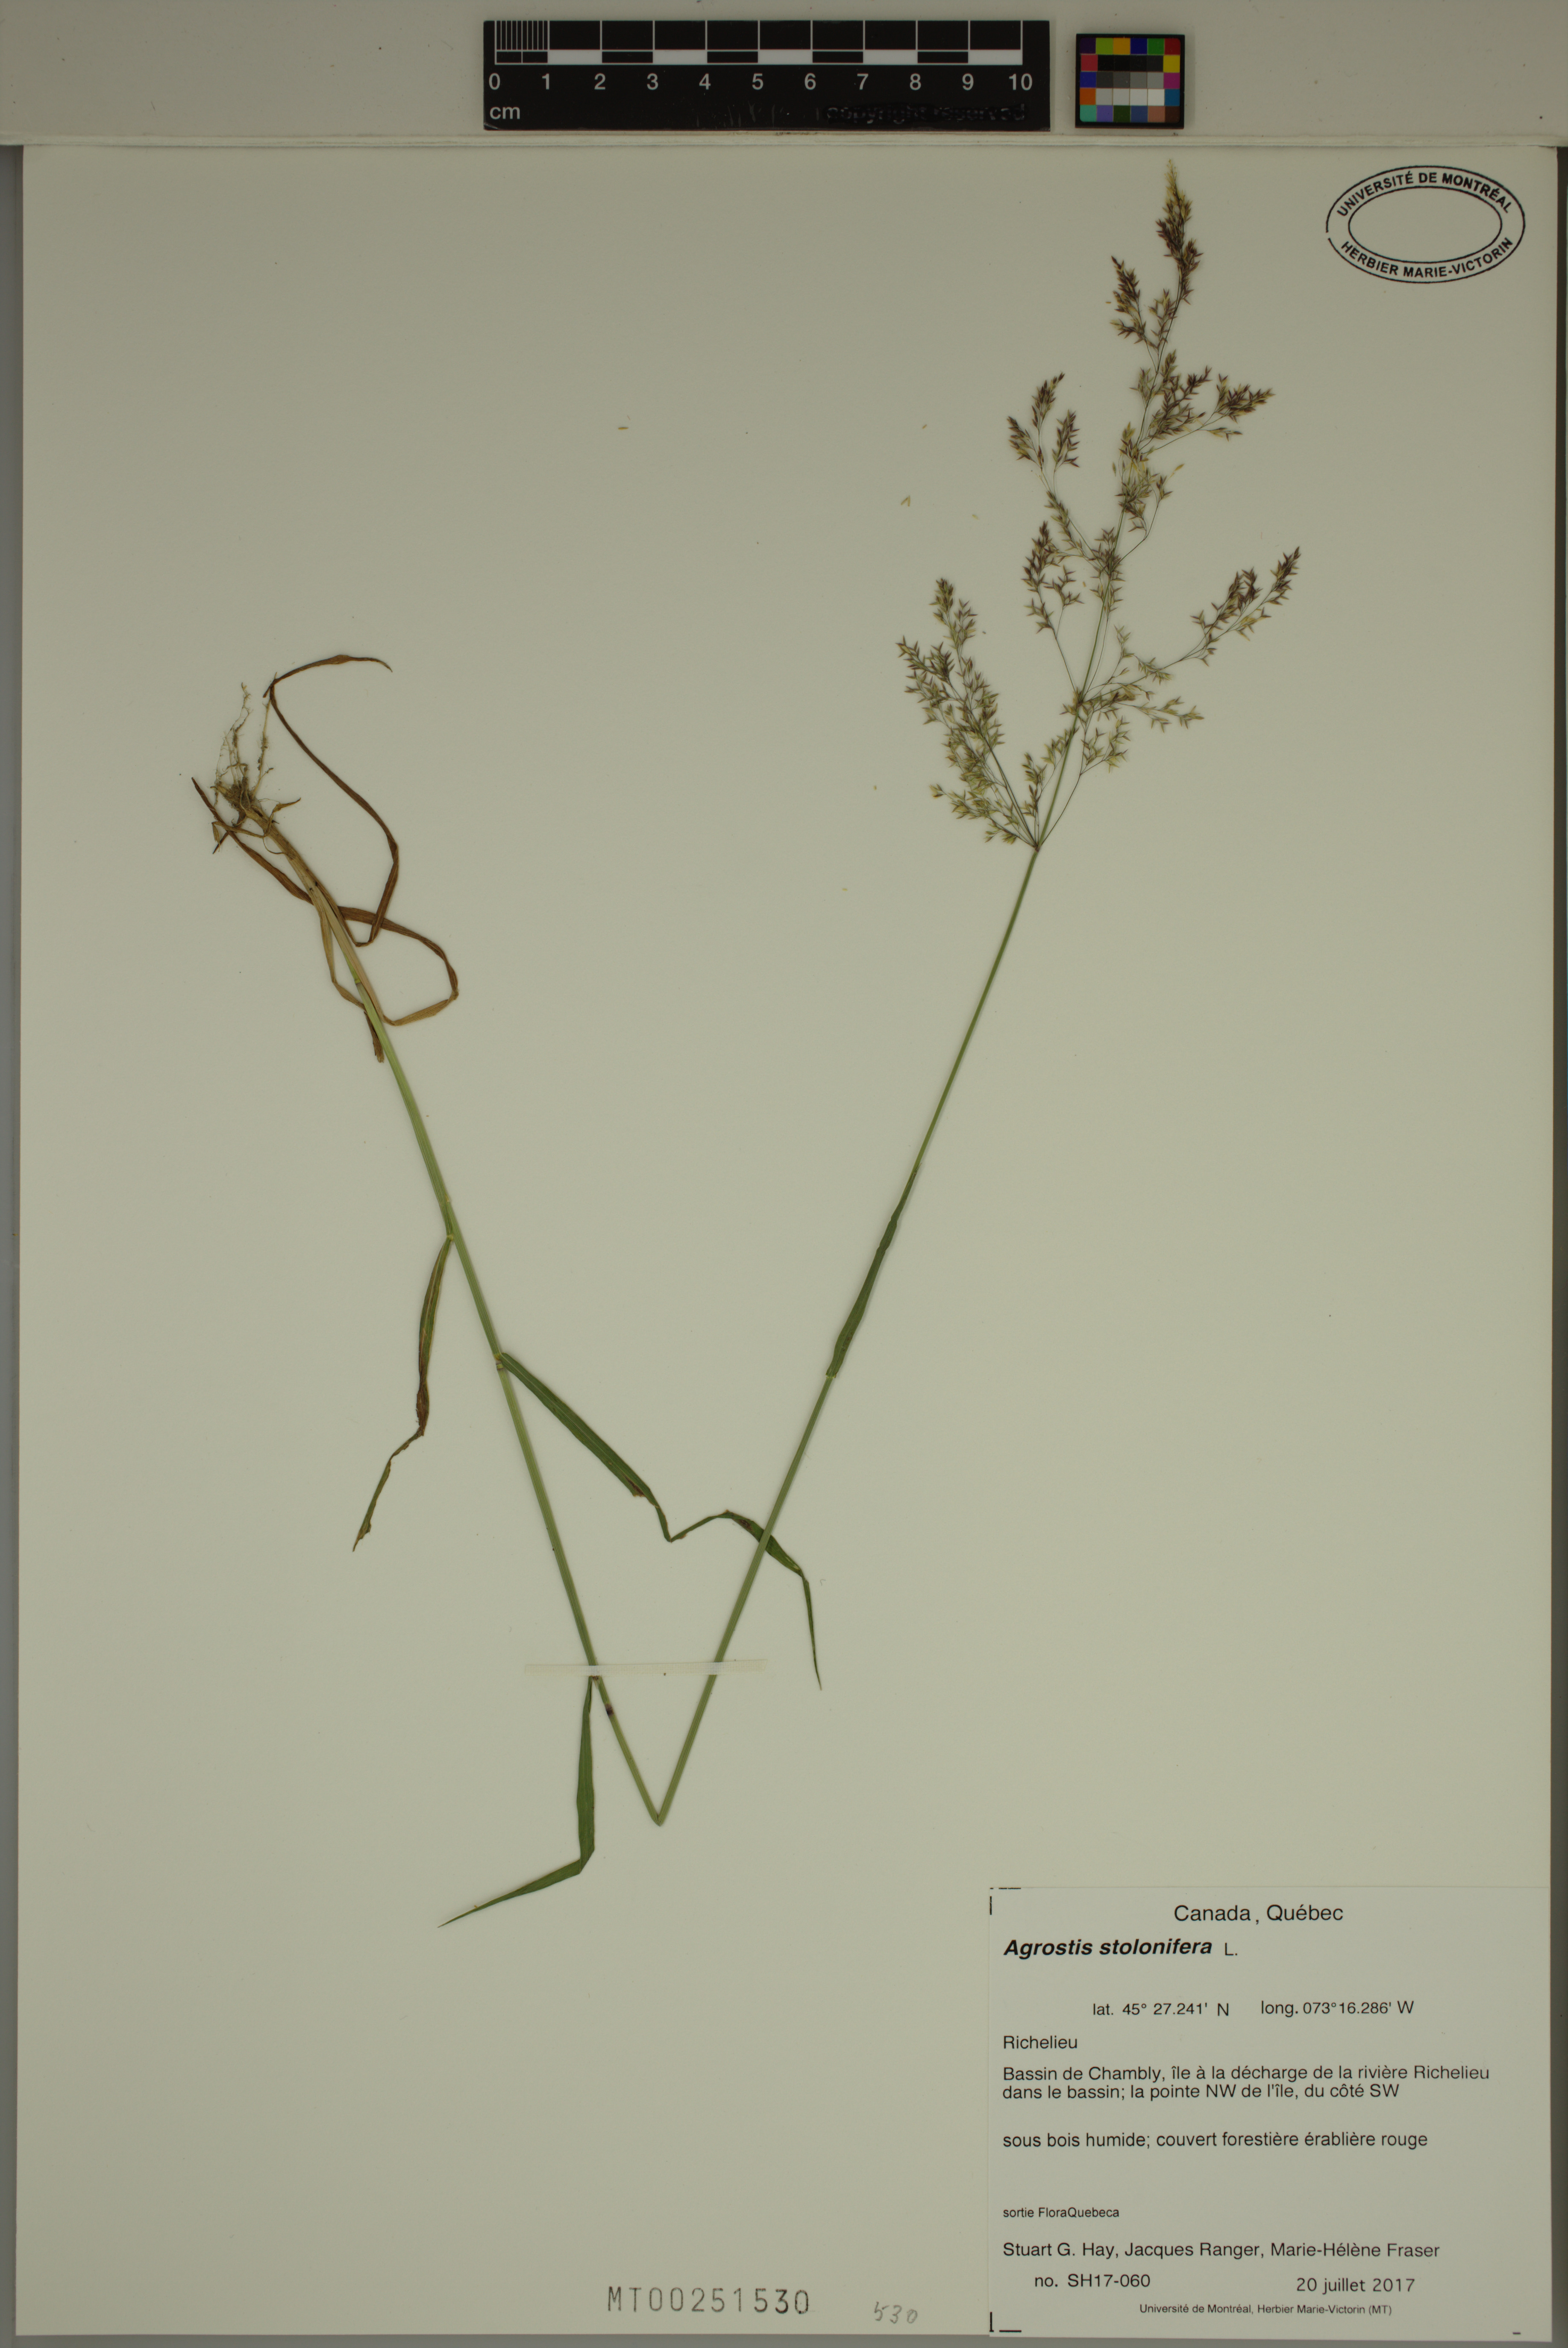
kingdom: Plantae
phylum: Tracheophyta
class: Liliopsida
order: Poales
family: Poaceae
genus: Agrostis
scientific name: Agrostis stolonifera
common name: Creeping bentgrass
